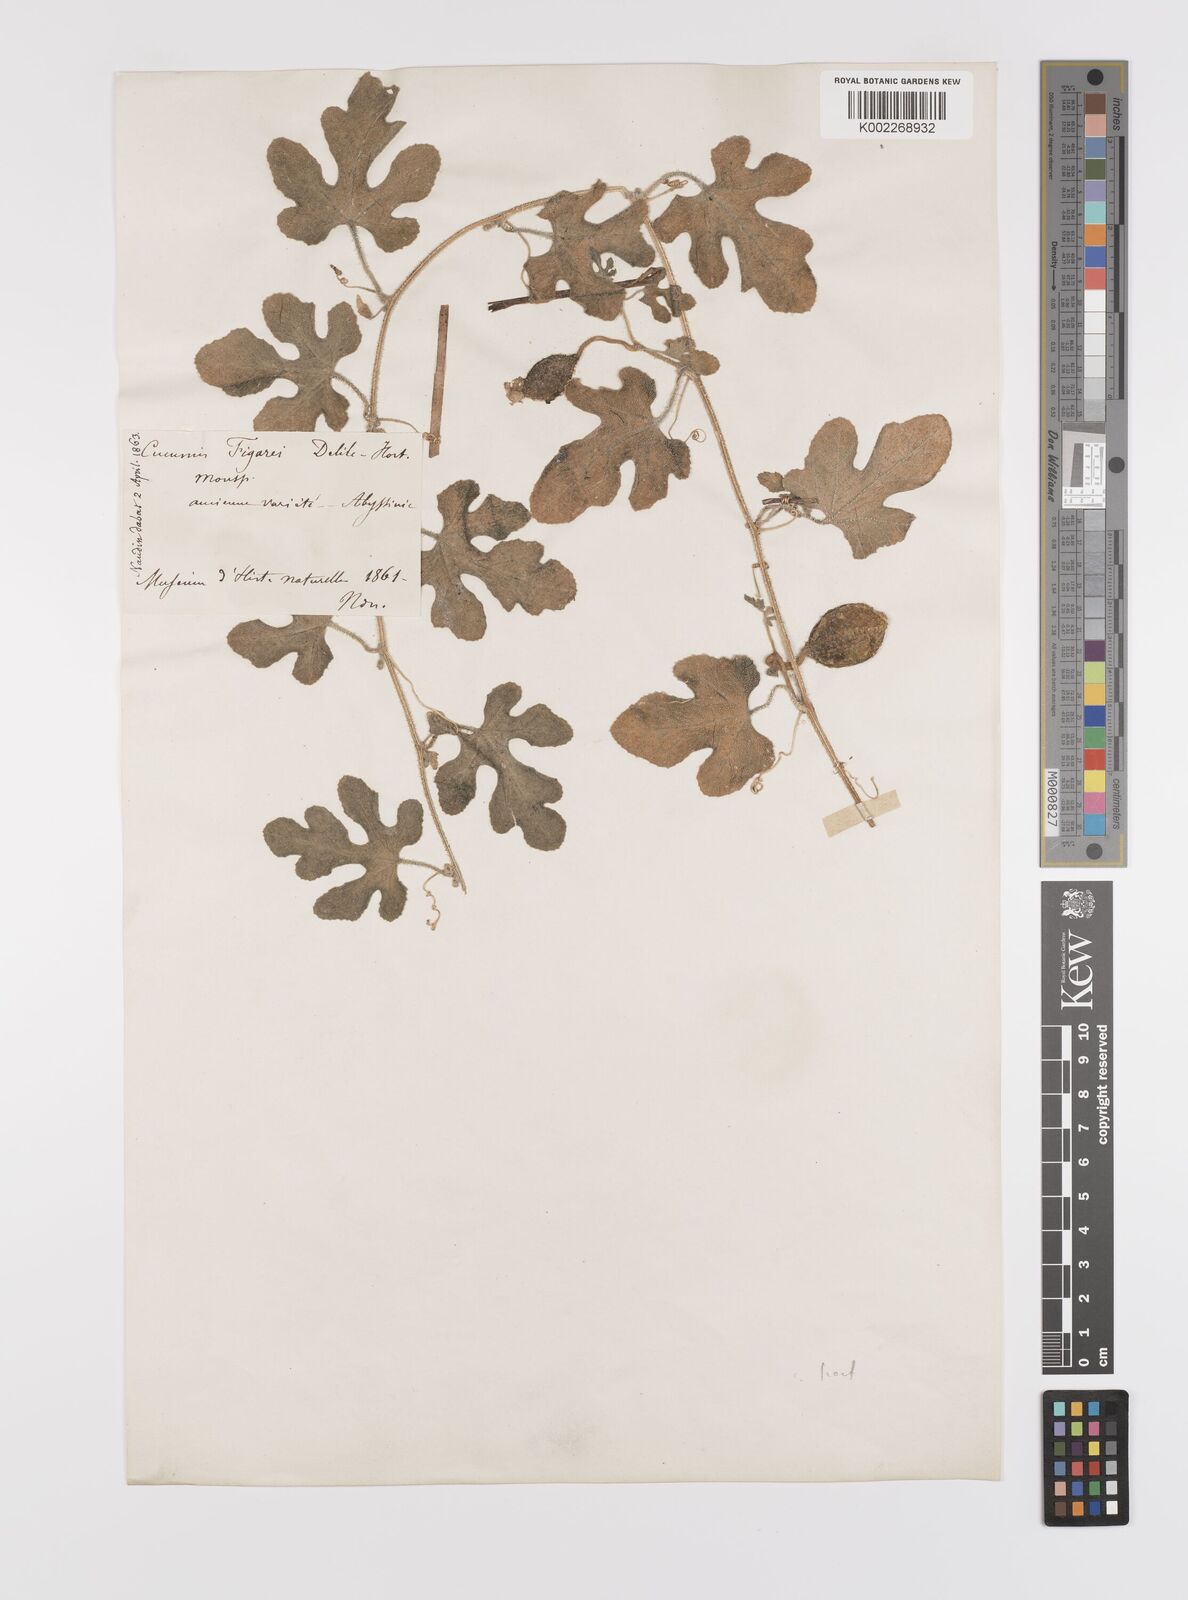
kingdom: Plantae
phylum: Tracheophyta
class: Magnoliopsida
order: Cucurbitales
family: Cucurbitaceae
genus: Cucumis
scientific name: Cucumis ficifolius
